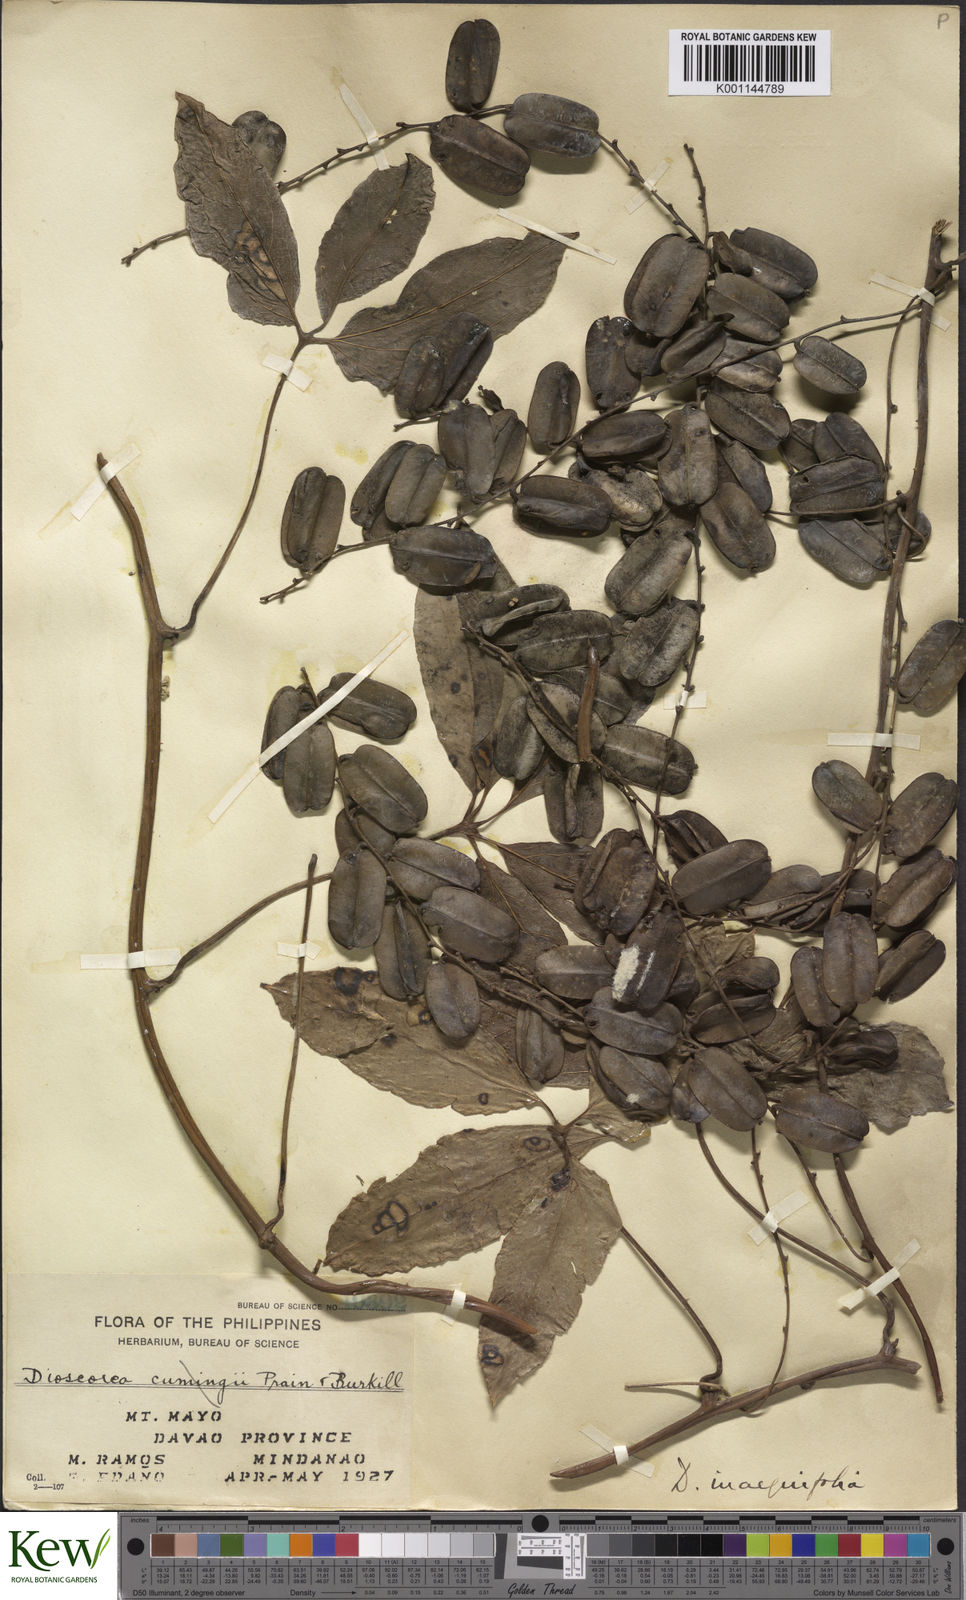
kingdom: Plantae
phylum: Tracheophyta
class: Liliopsida
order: Dioscoreales
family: Dioscoreaceae
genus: Dioscorea
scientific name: Dioscorea cumingii
